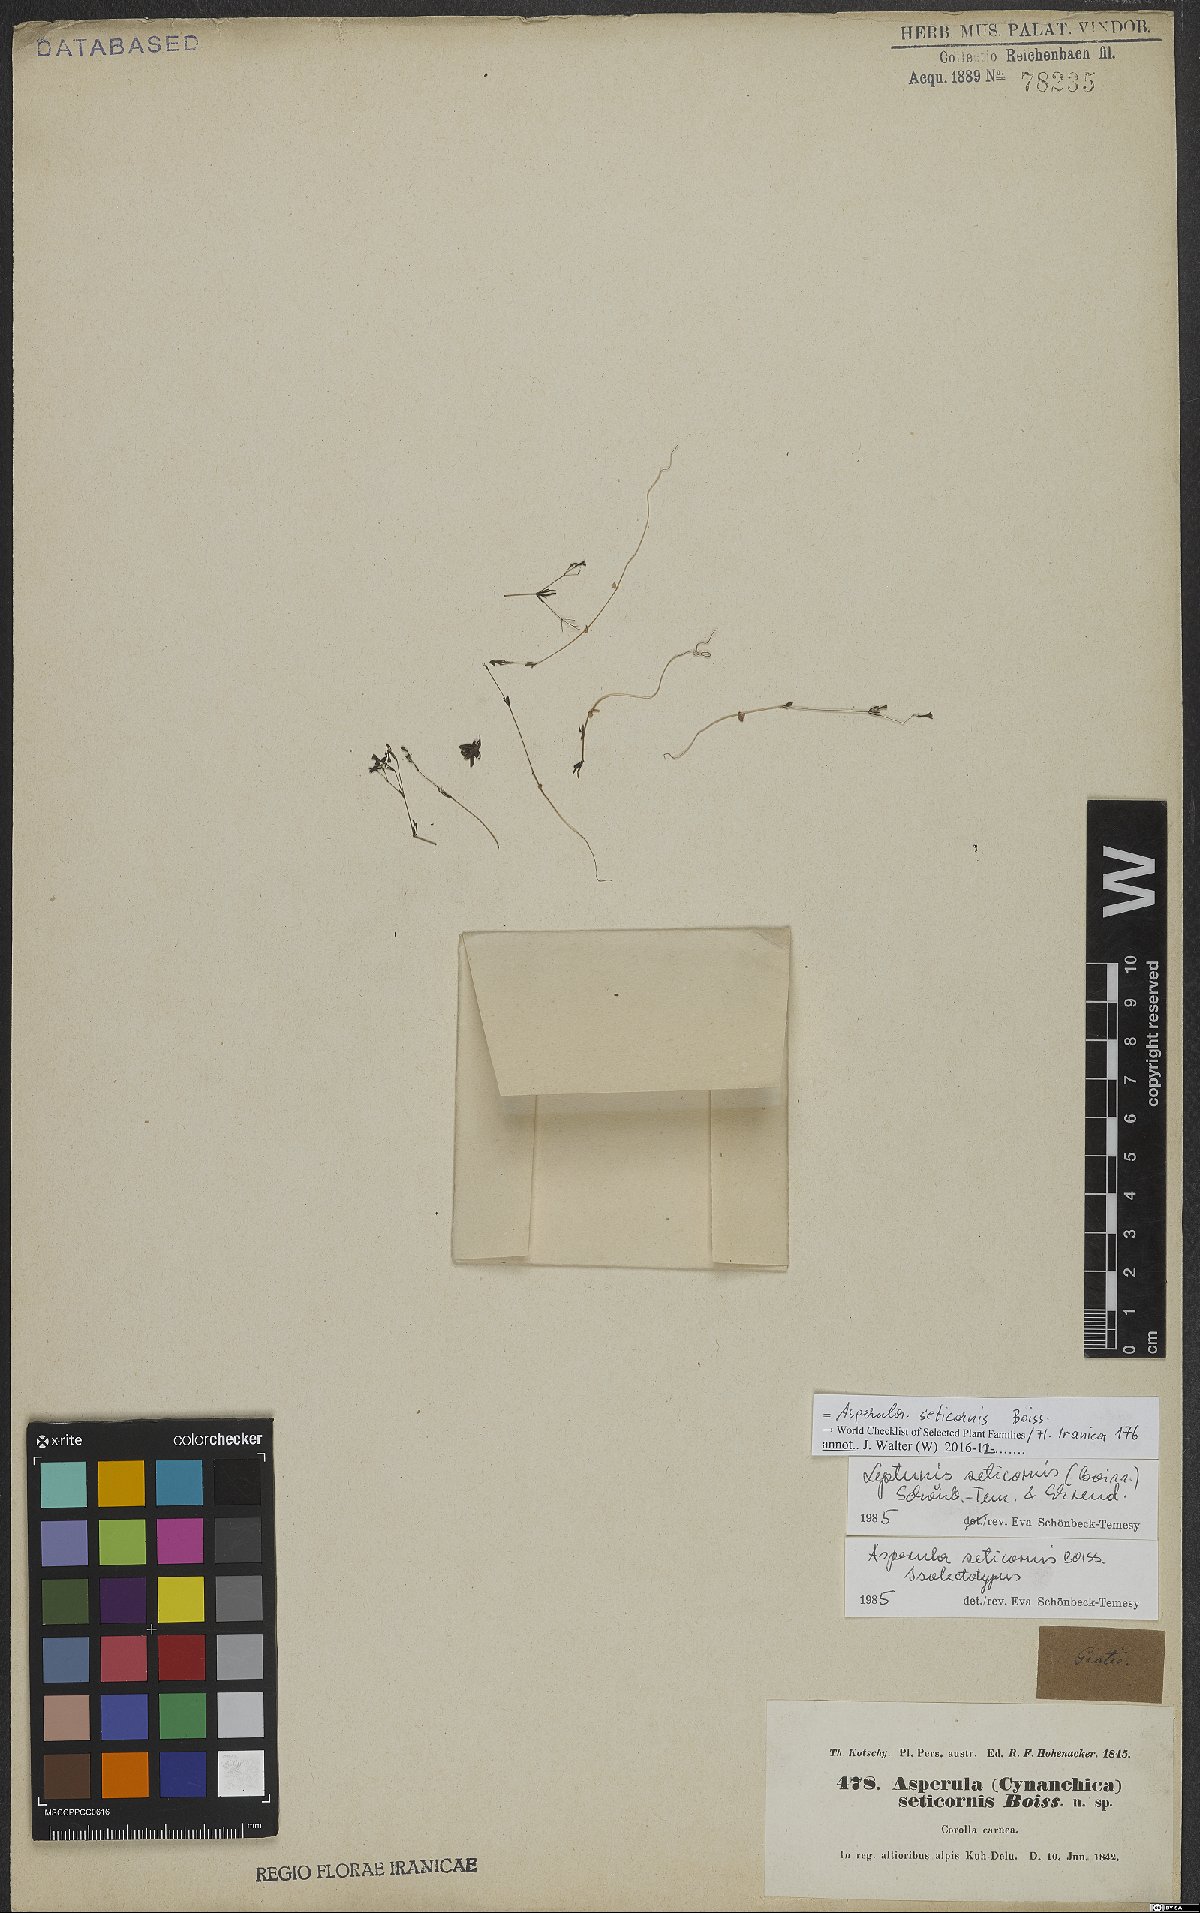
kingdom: Plantae
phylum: Tracheophyta
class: Magnoliopsida
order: Gentianales
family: Rubiaceae
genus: Asperula
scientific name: Asperula seticornis
